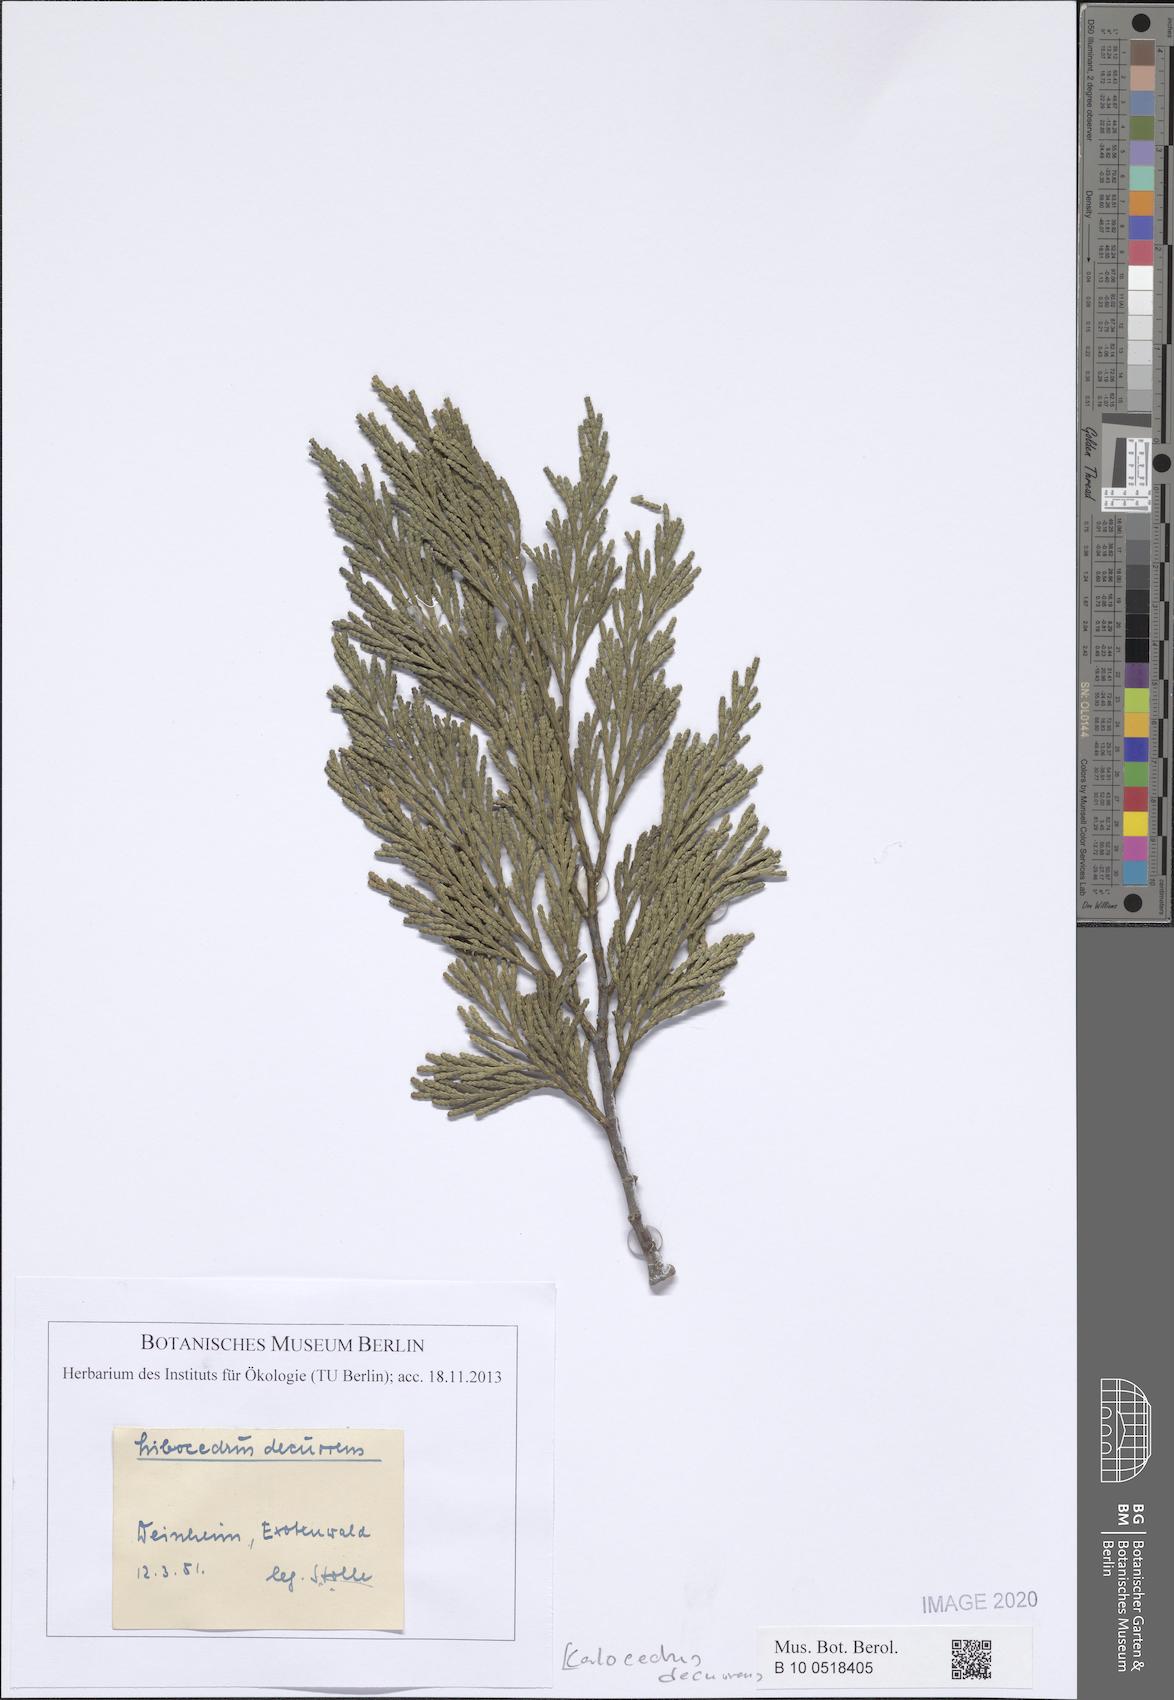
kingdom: Plantae
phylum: Tracheophyta
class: Pinopsida
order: Pinales
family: Cupressaceae
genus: Calocedrus
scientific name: Calocedrus decurrens
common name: Californian incense-cedar
